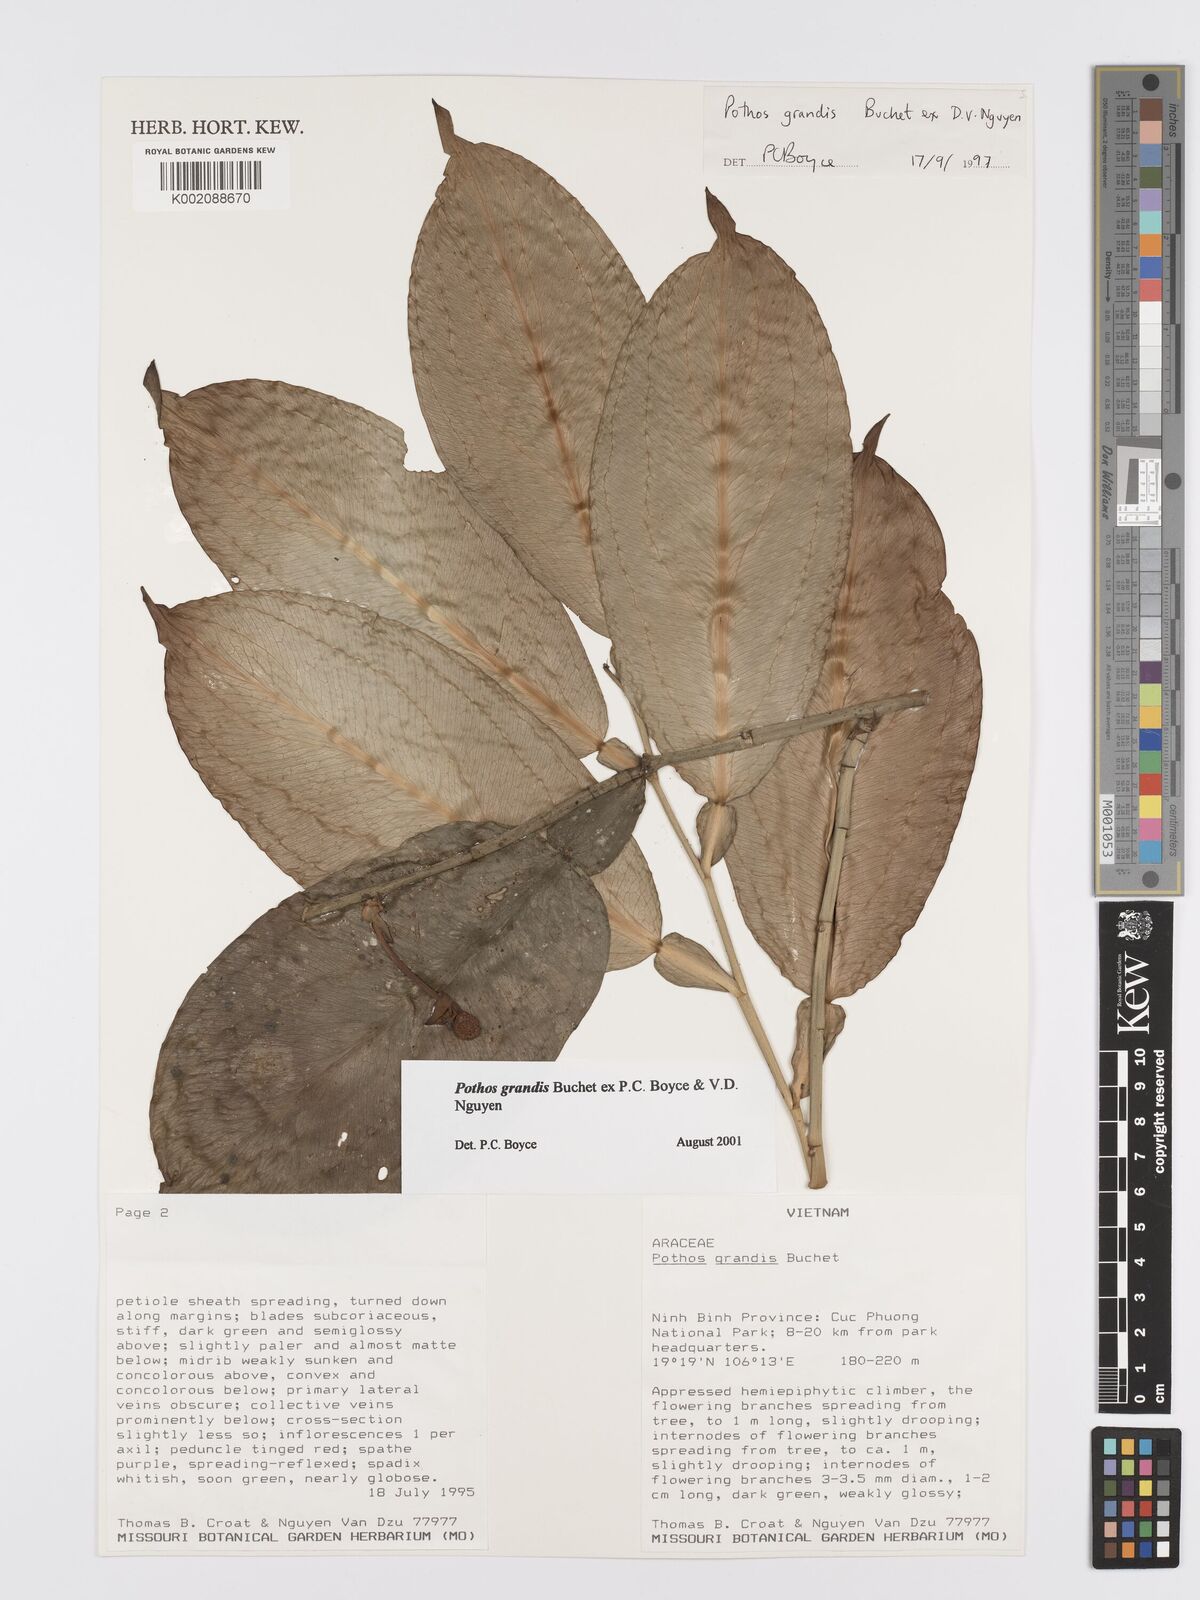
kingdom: Plantae
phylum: Tracheophyta
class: Liliopsida
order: Alismatales
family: Araceae
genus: Pothos
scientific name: Pothos grandis
